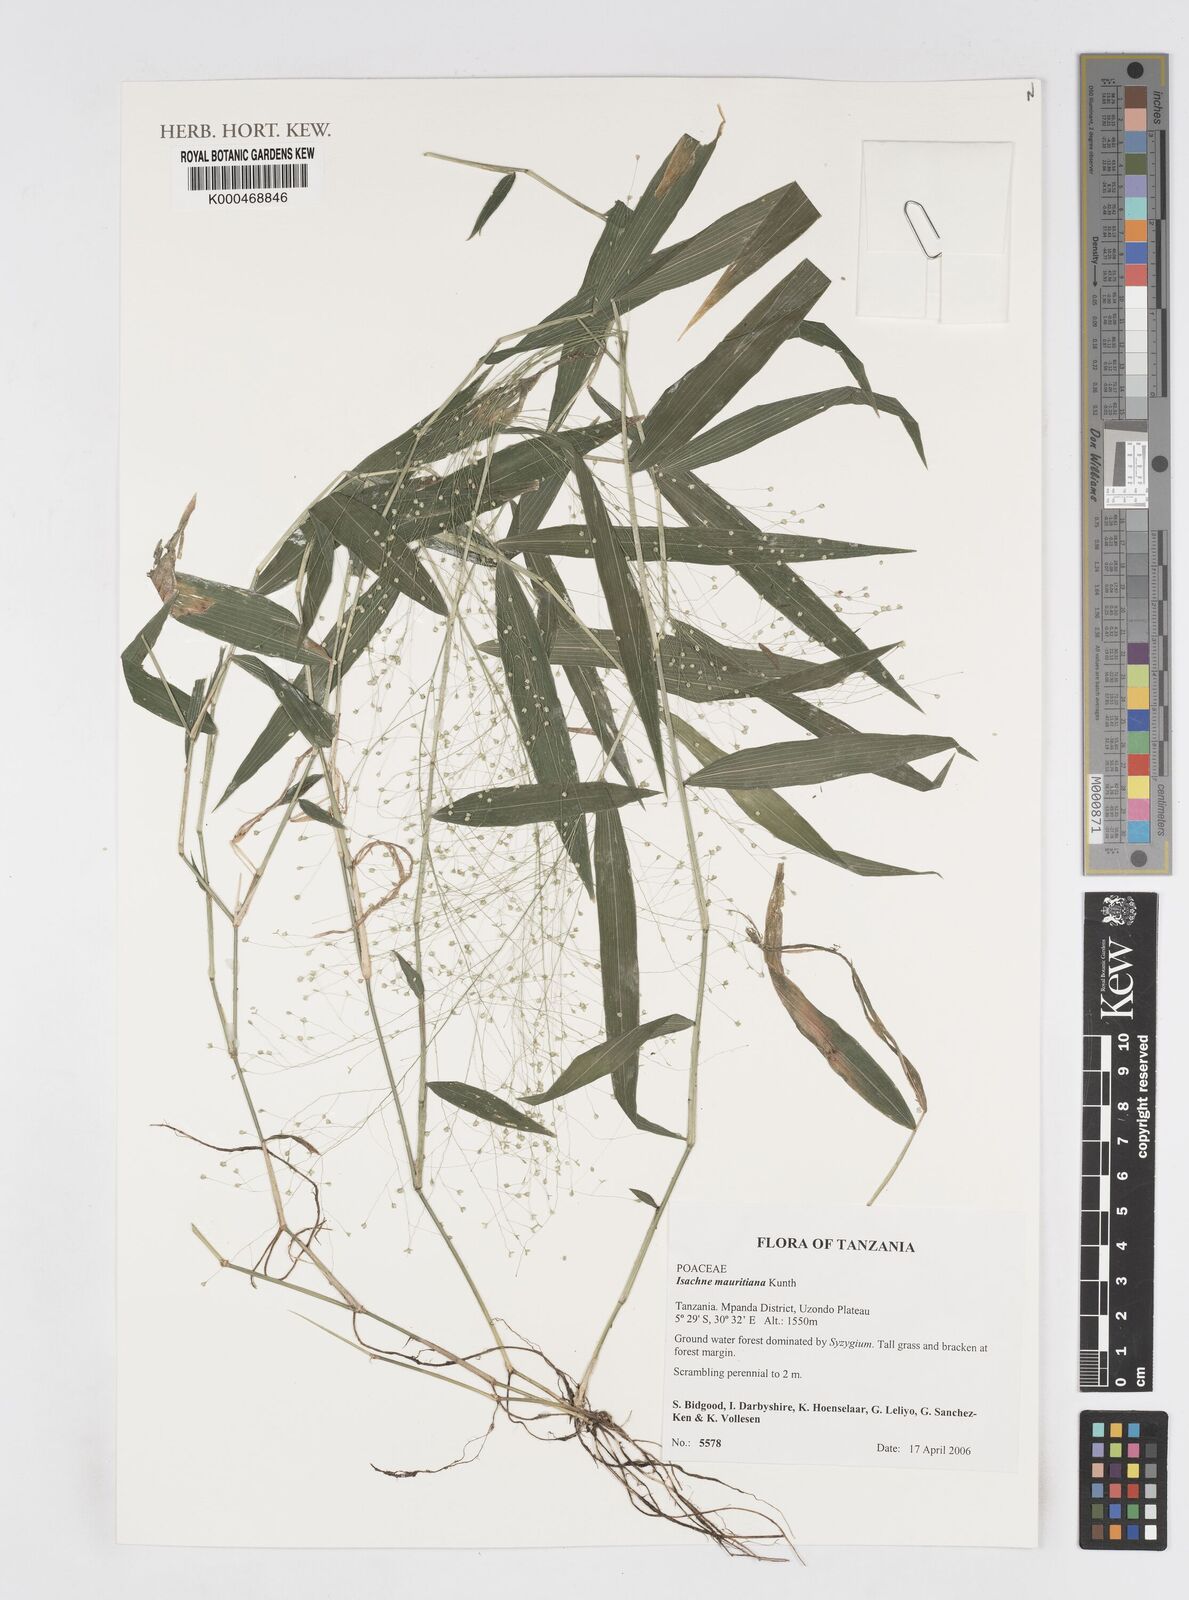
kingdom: Plantae
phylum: Tracheophyta
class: Liliopsida
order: Poales
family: Poaceae
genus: Isachne
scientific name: Isachne mauritiana
